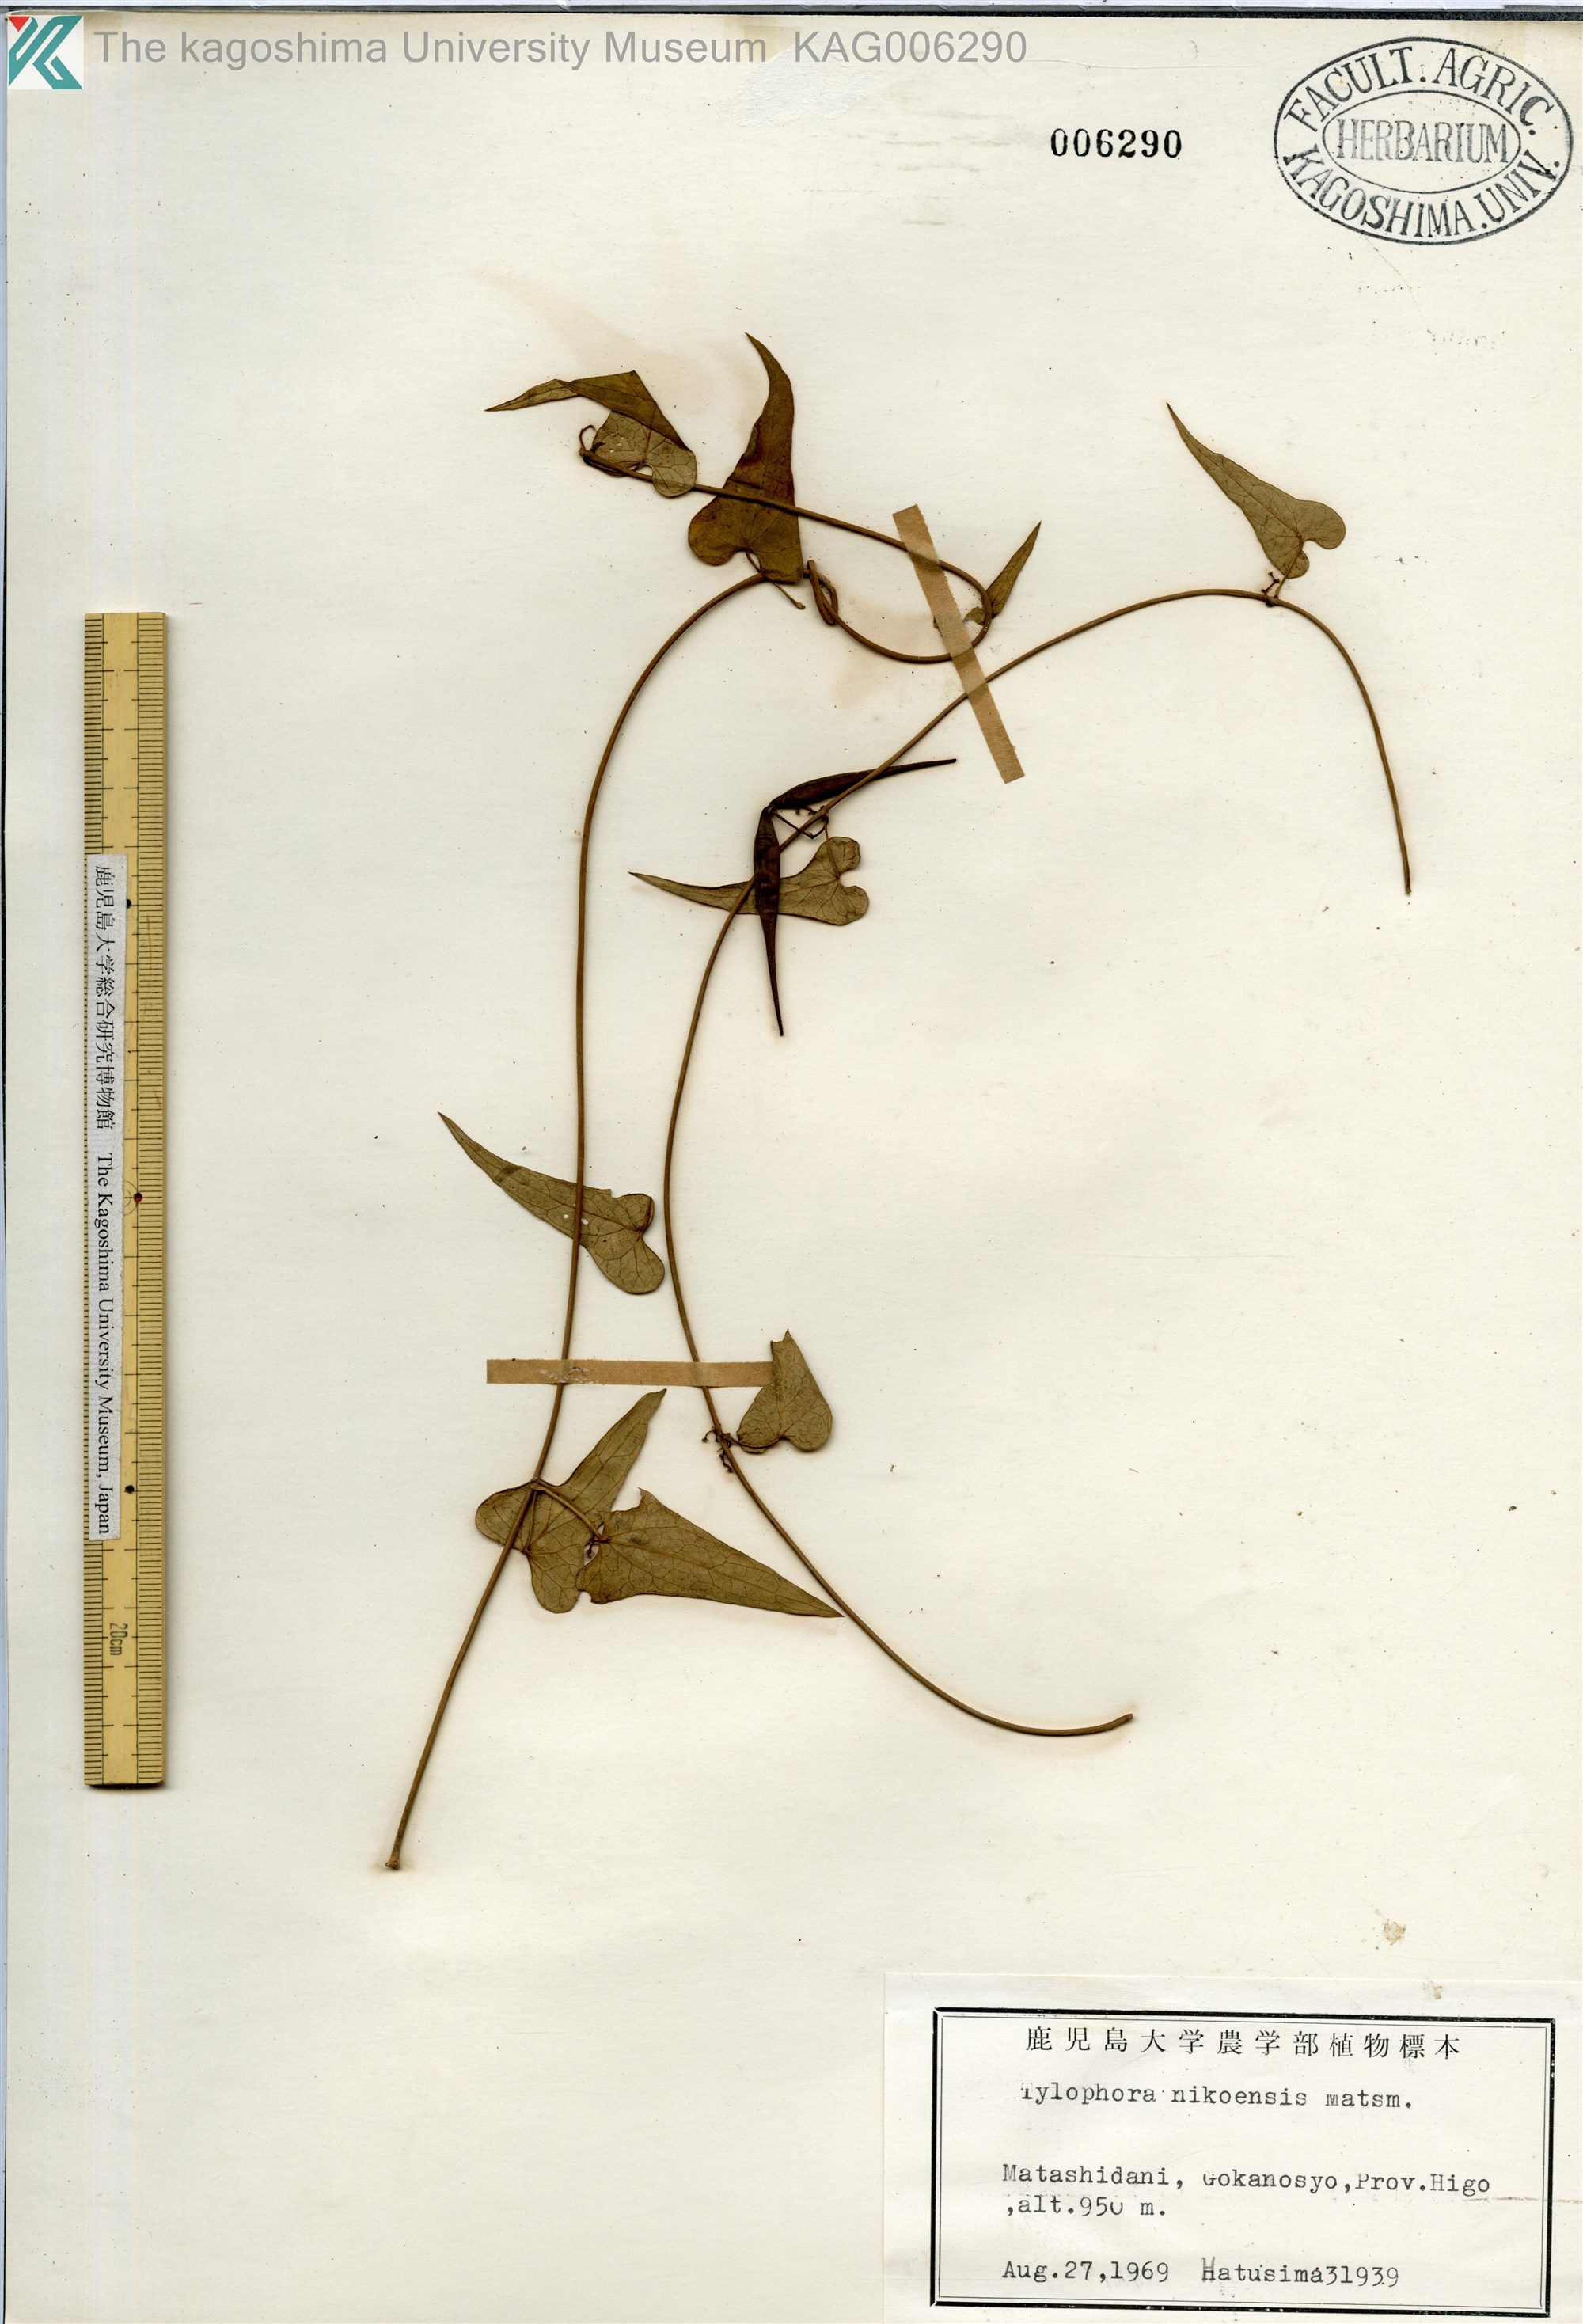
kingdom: Plantae
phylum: Tracheophyta
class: Magnoliopsida
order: Gentianales
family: Apocynaceae
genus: Vincetoxicum
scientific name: Vincetoxicum aristolochioides
